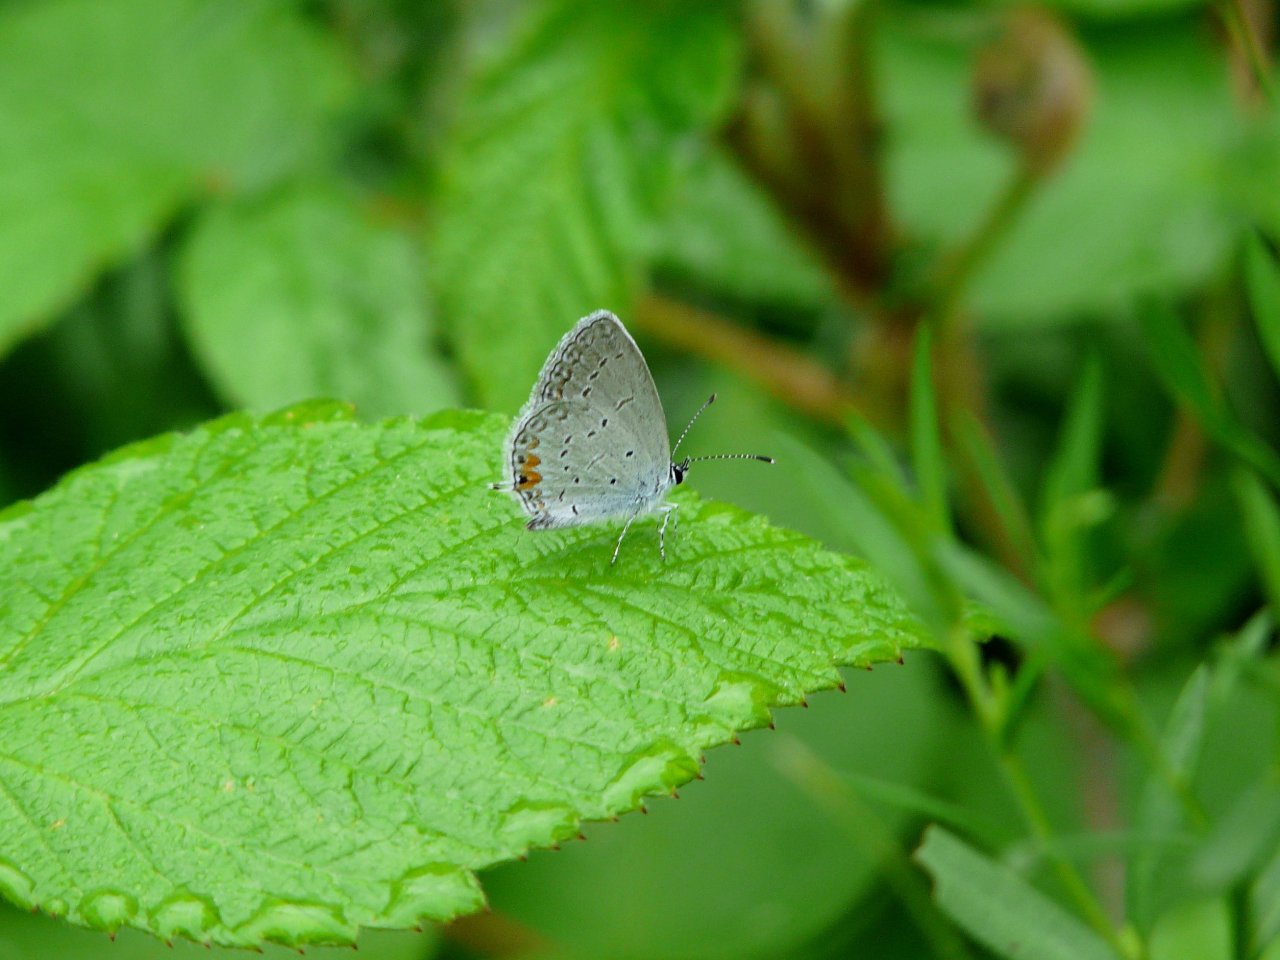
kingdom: Animalia
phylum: Arthropoda
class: Insecta
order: Lepidoptera
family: Lycaenidae
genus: Elkalyce
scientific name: Elkalyce comyntas
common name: Eastern Tailed-Blue
